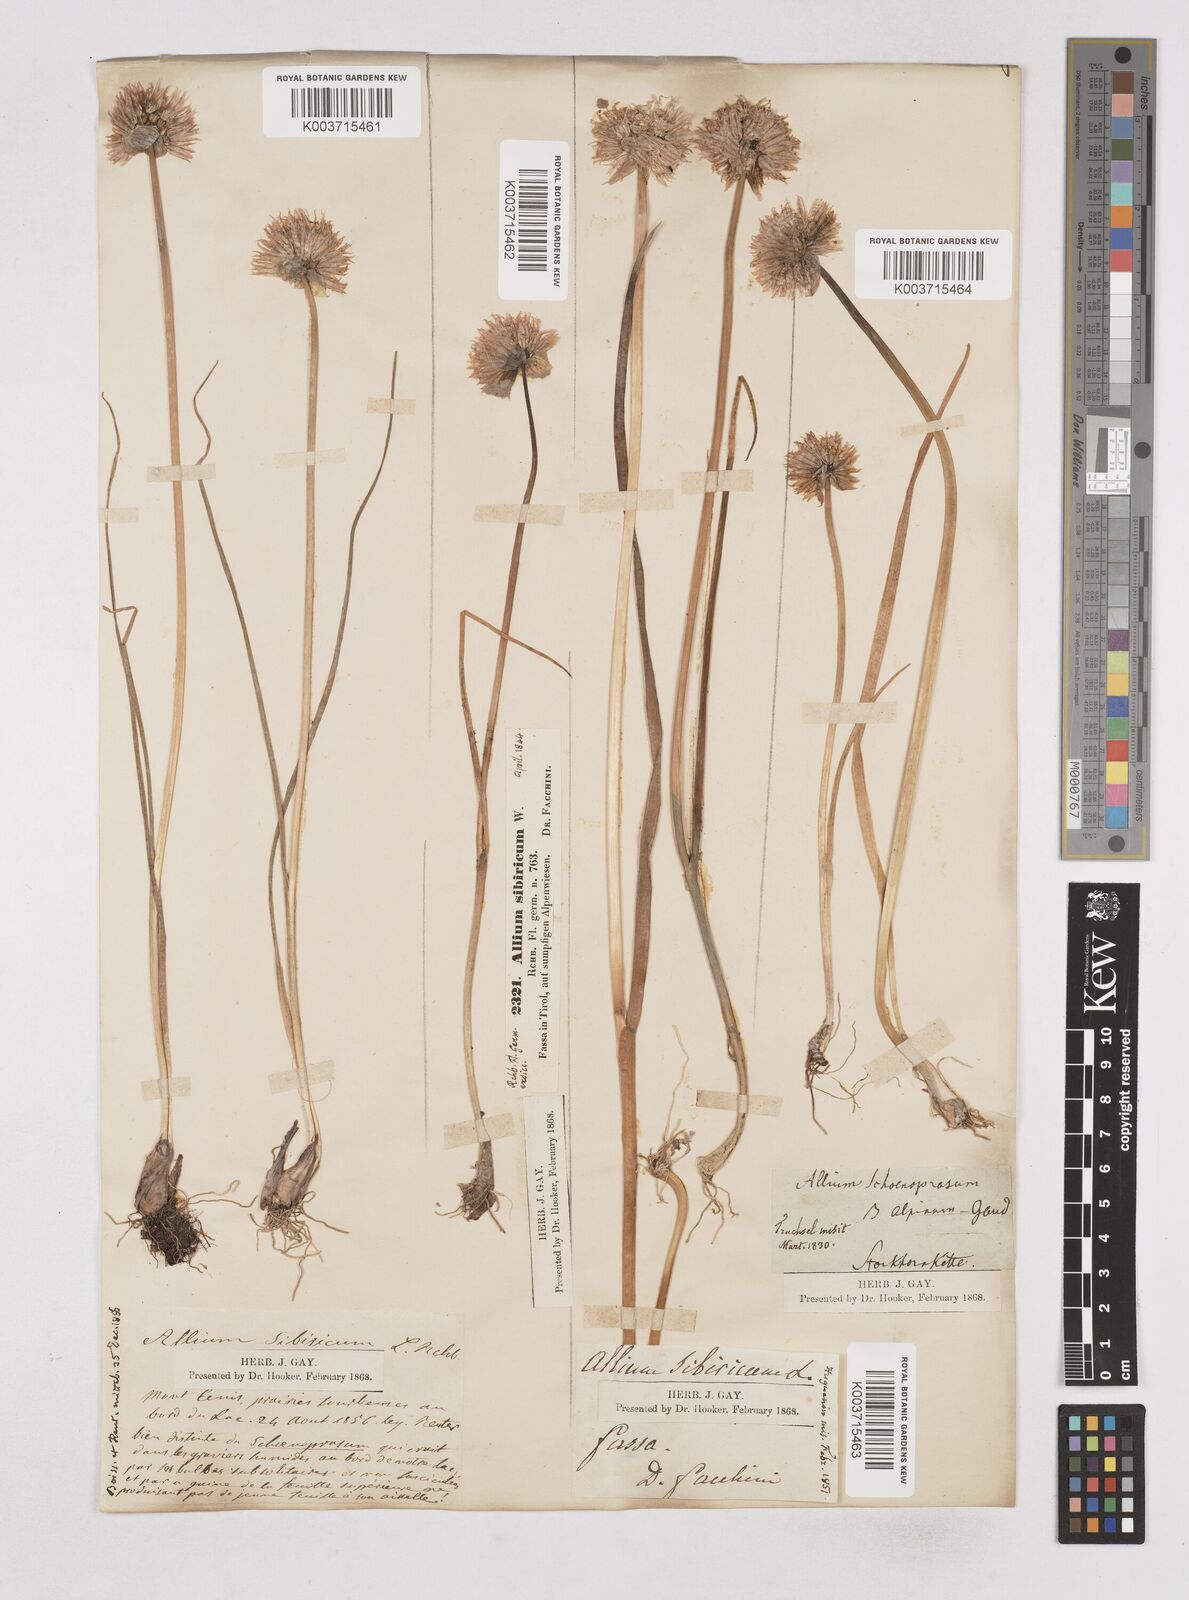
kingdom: Plantae
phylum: Tracheophyta
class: Liliopsida
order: Asparagales
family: Amaryllidaceae
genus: Allium
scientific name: Allium schoenoprasum
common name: Chives
